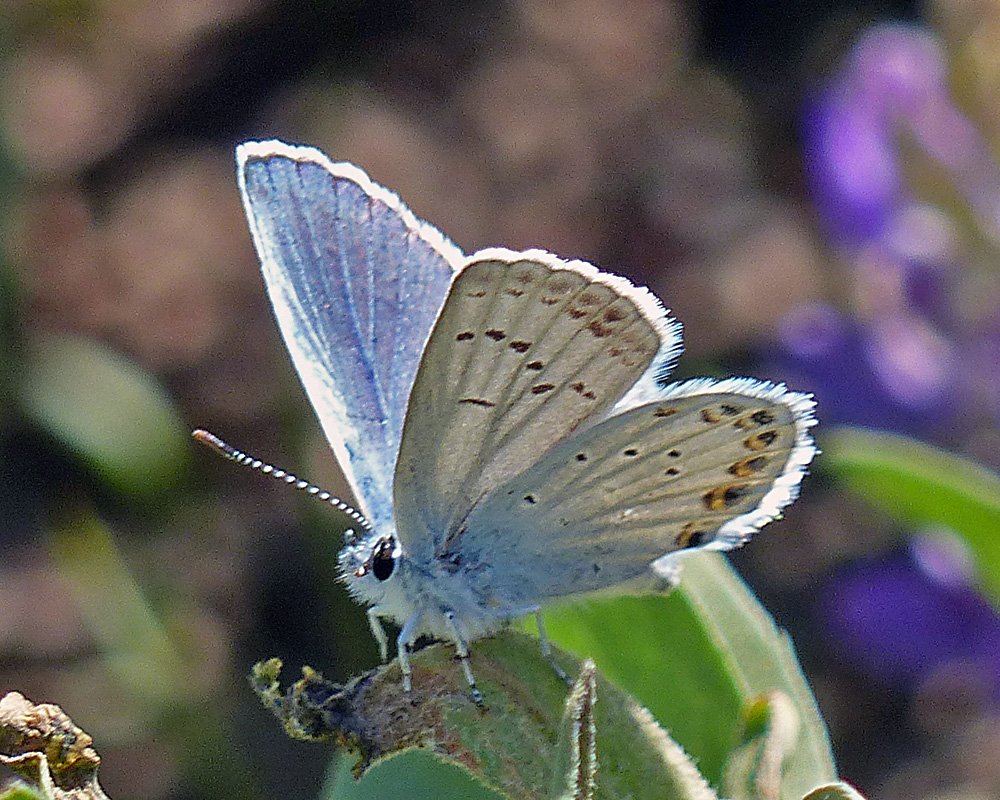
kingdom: Animalia
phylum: Arthropoda
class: Insecta
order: Lepidoptera
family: Lycaenidae
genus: Lycaeides
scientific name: Lycaeides anna
